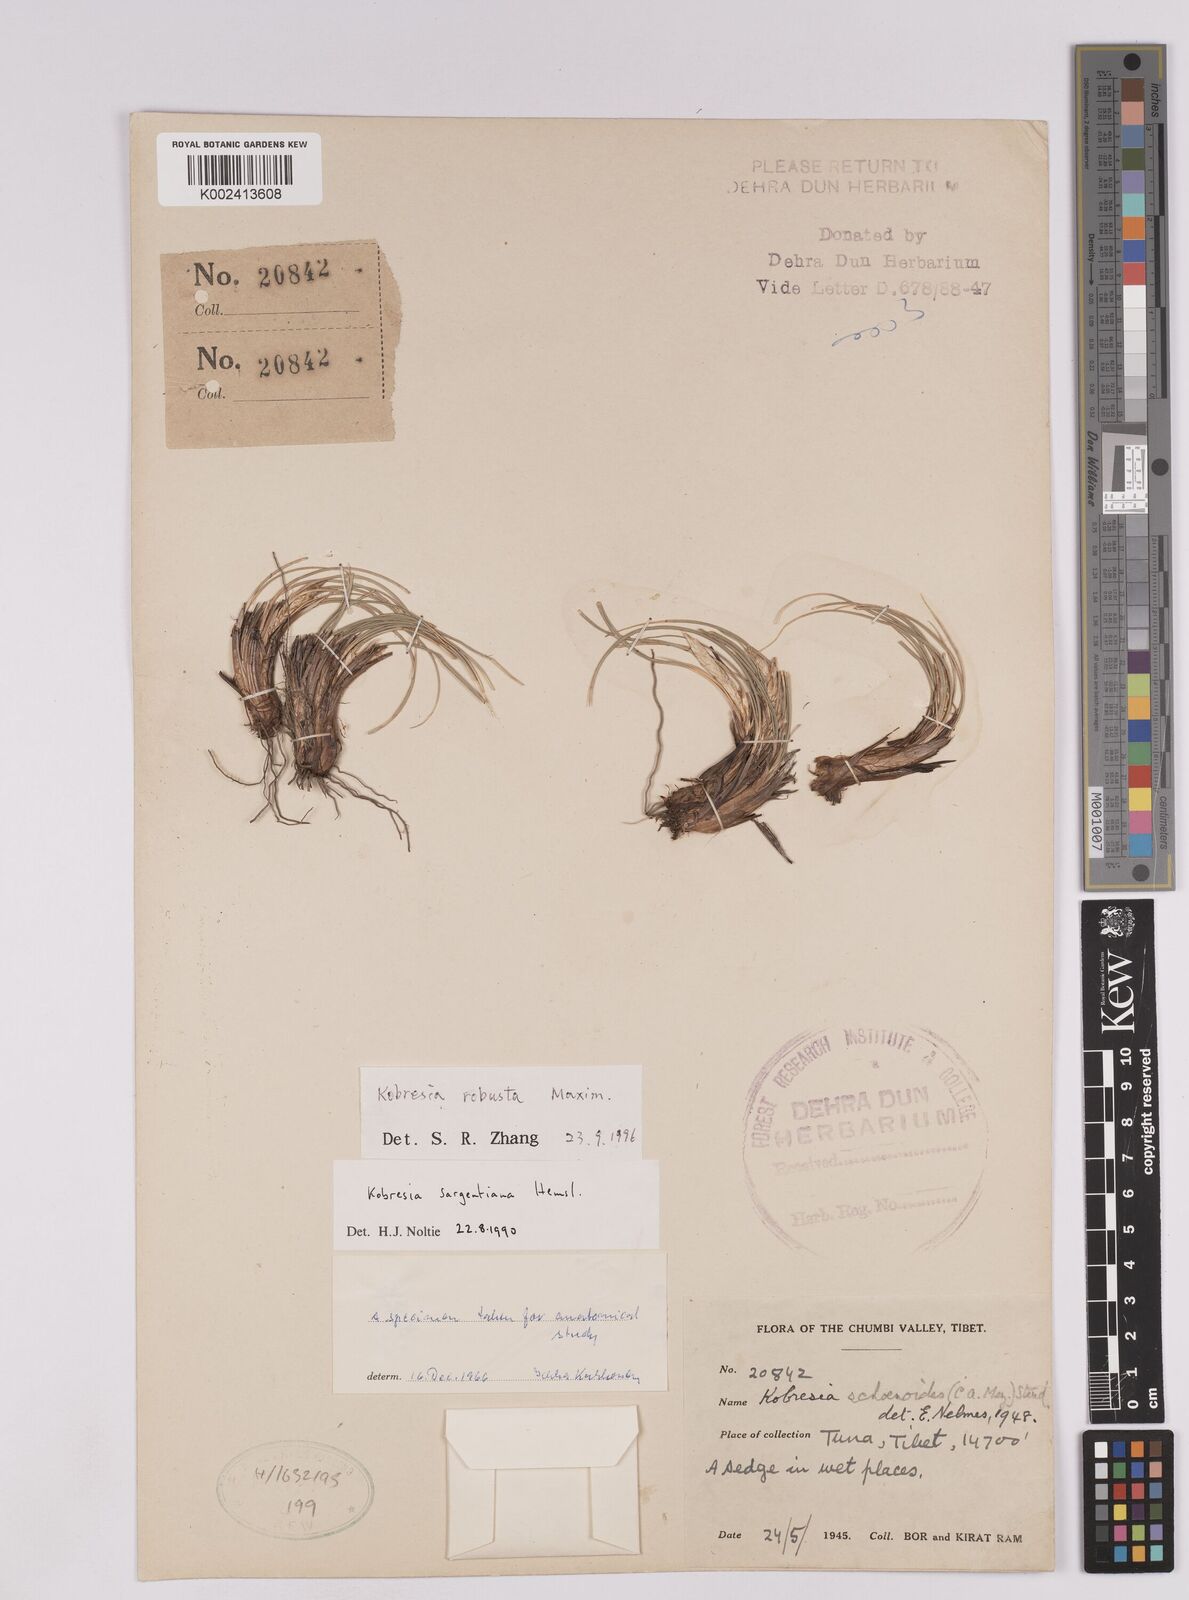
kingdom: Plantae
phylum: Tracheophyta
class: Liliopsida
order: Poales
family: Cyperaceae
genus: Carex
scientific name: Carex sargentiana
